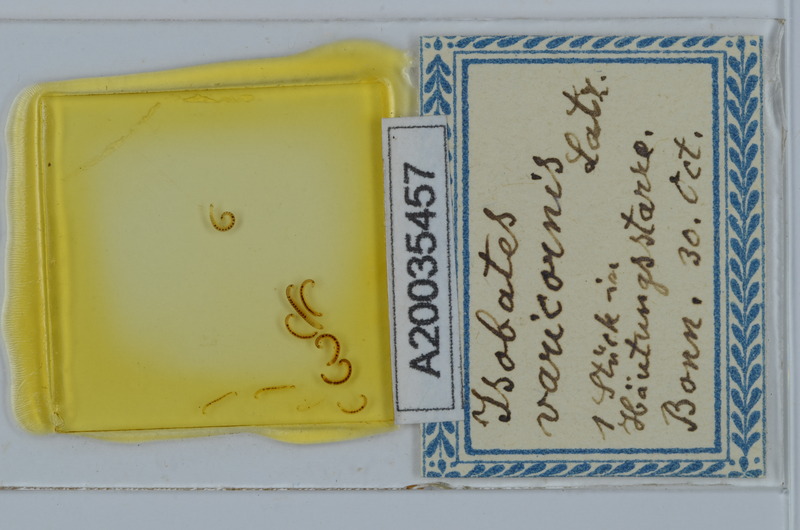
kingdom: Animalia
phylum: Arthropoda
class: Diplopoda
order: Julida
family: Nemasomatidae
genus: Isobates
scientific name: Isobates varicornis
